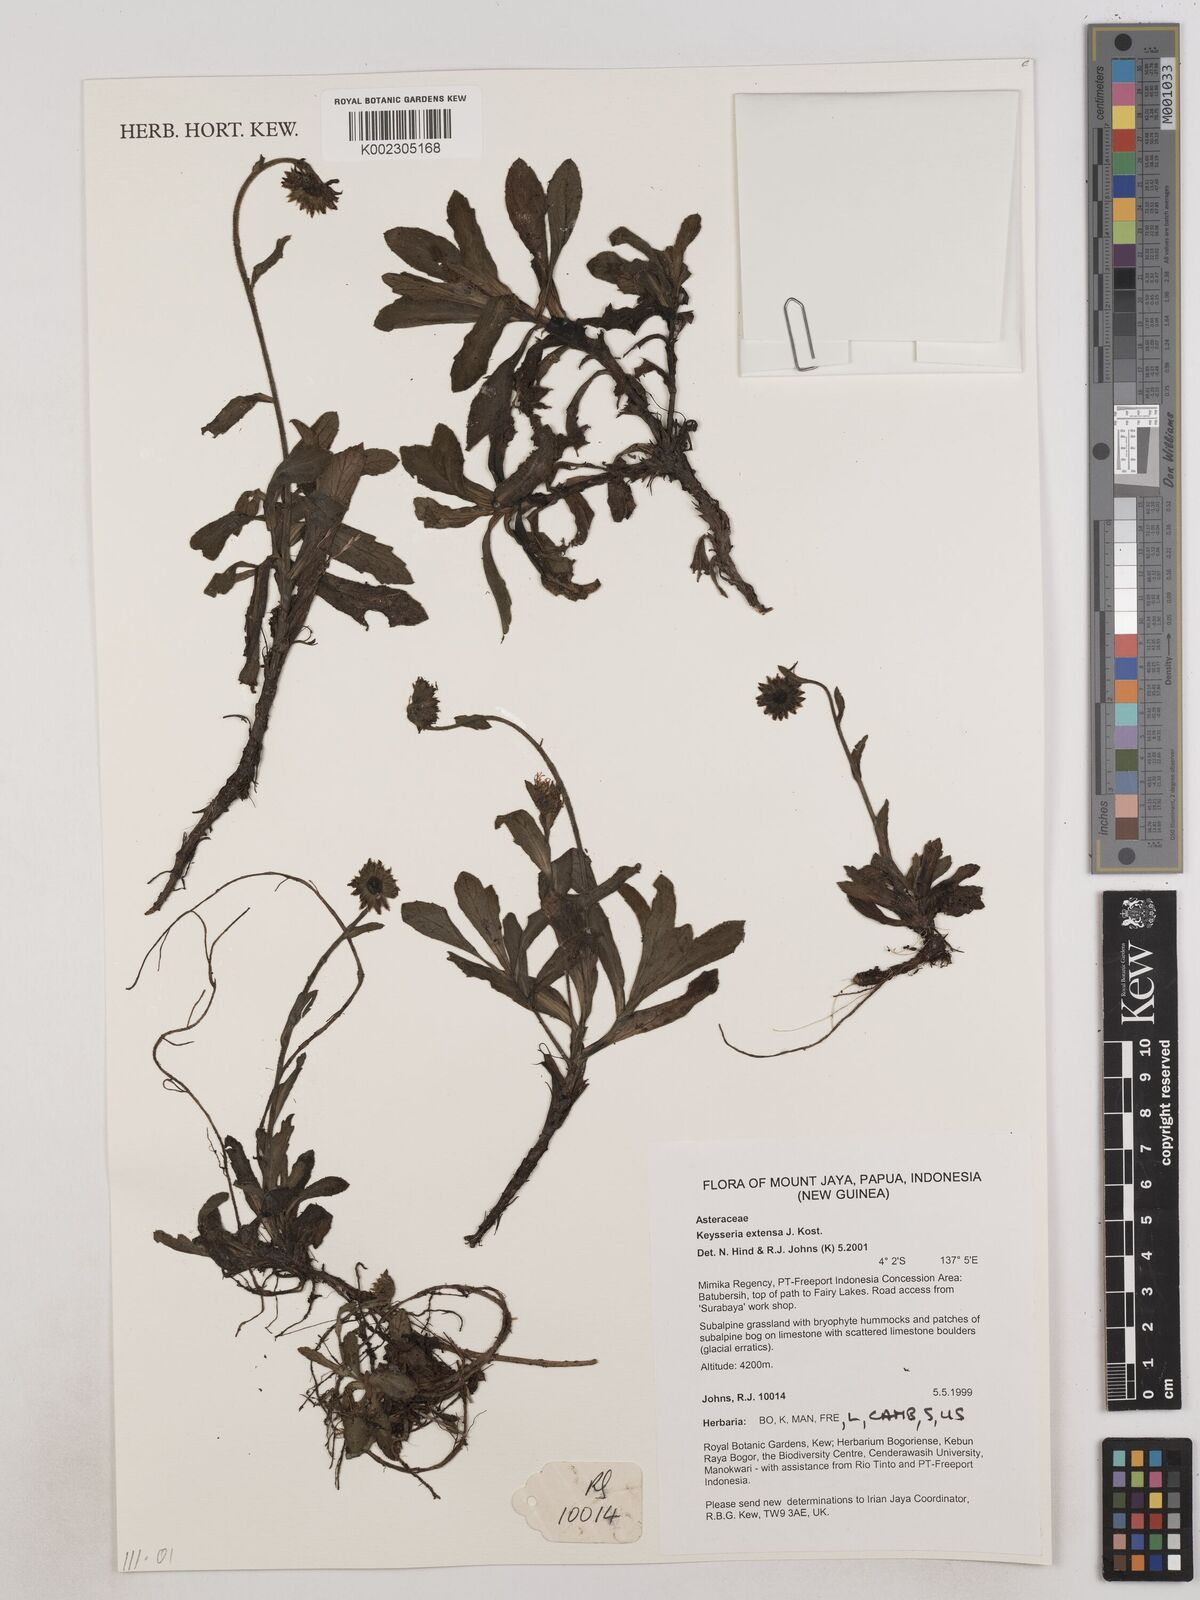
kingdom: Plantae
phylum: Tracheophyta
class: Magnoliopsida
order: Asterales
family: Asteraceae
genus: Keysseria
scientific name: Keysseria extensa
